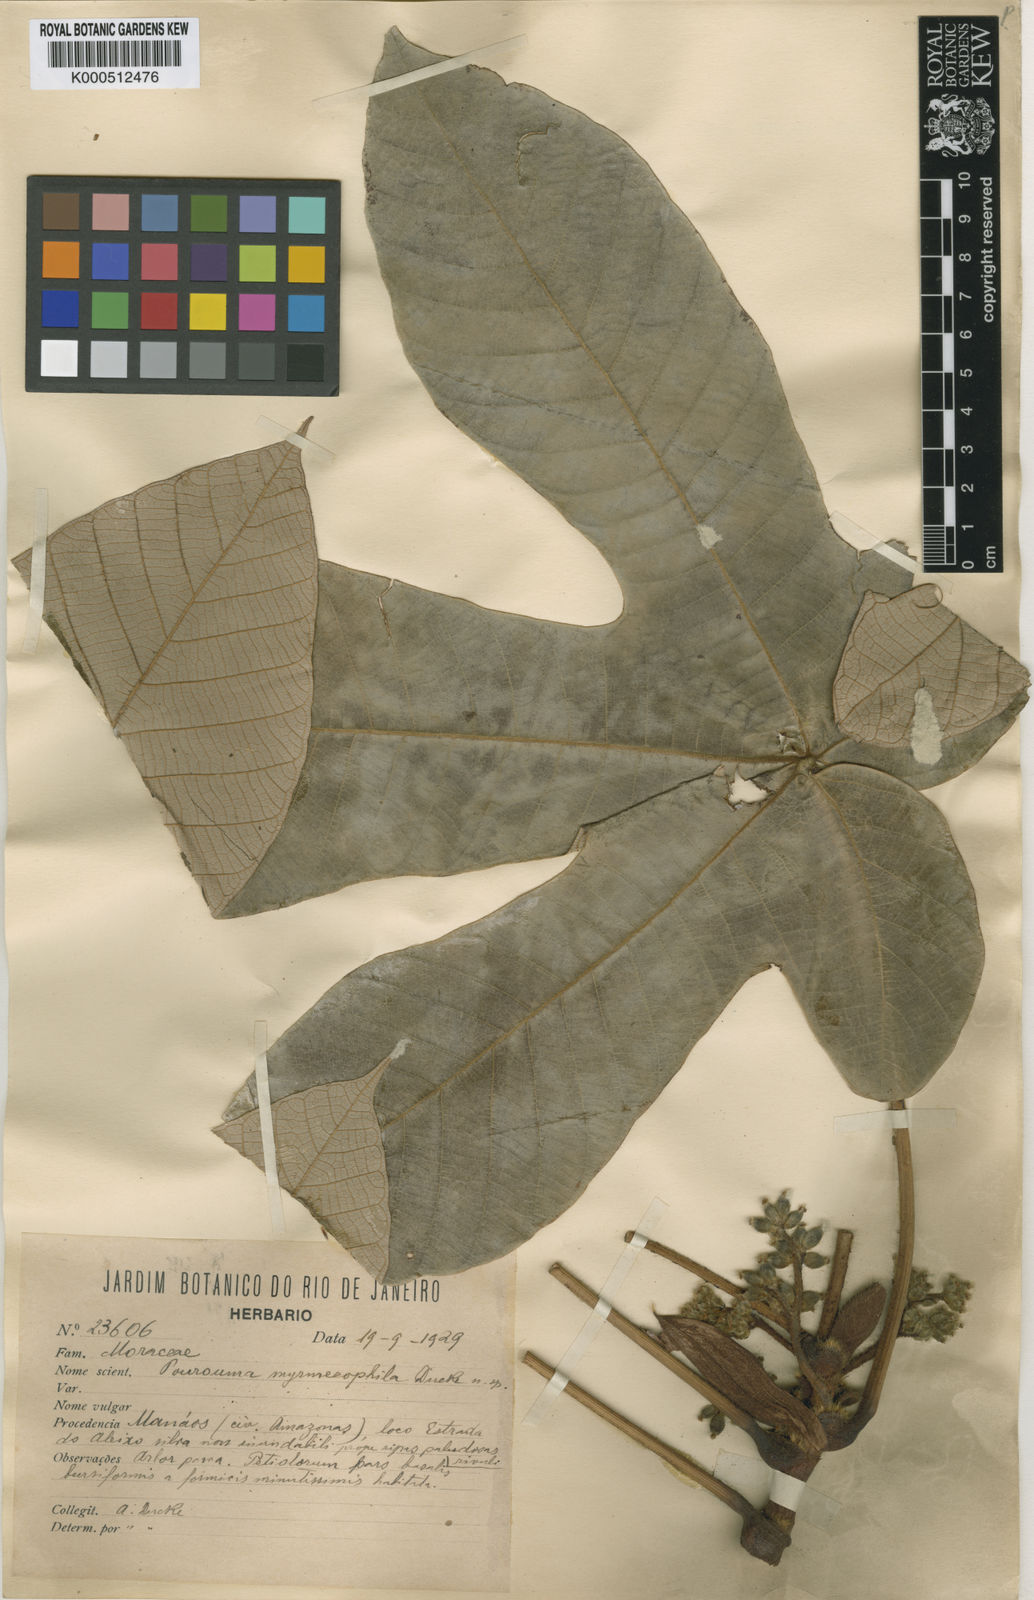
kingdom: Plantae
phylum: Tracheophyta
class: Magnoliopsida
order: Rosales
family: Urticaceae
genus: Pourouma
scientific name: Pourouma myrmecophila
